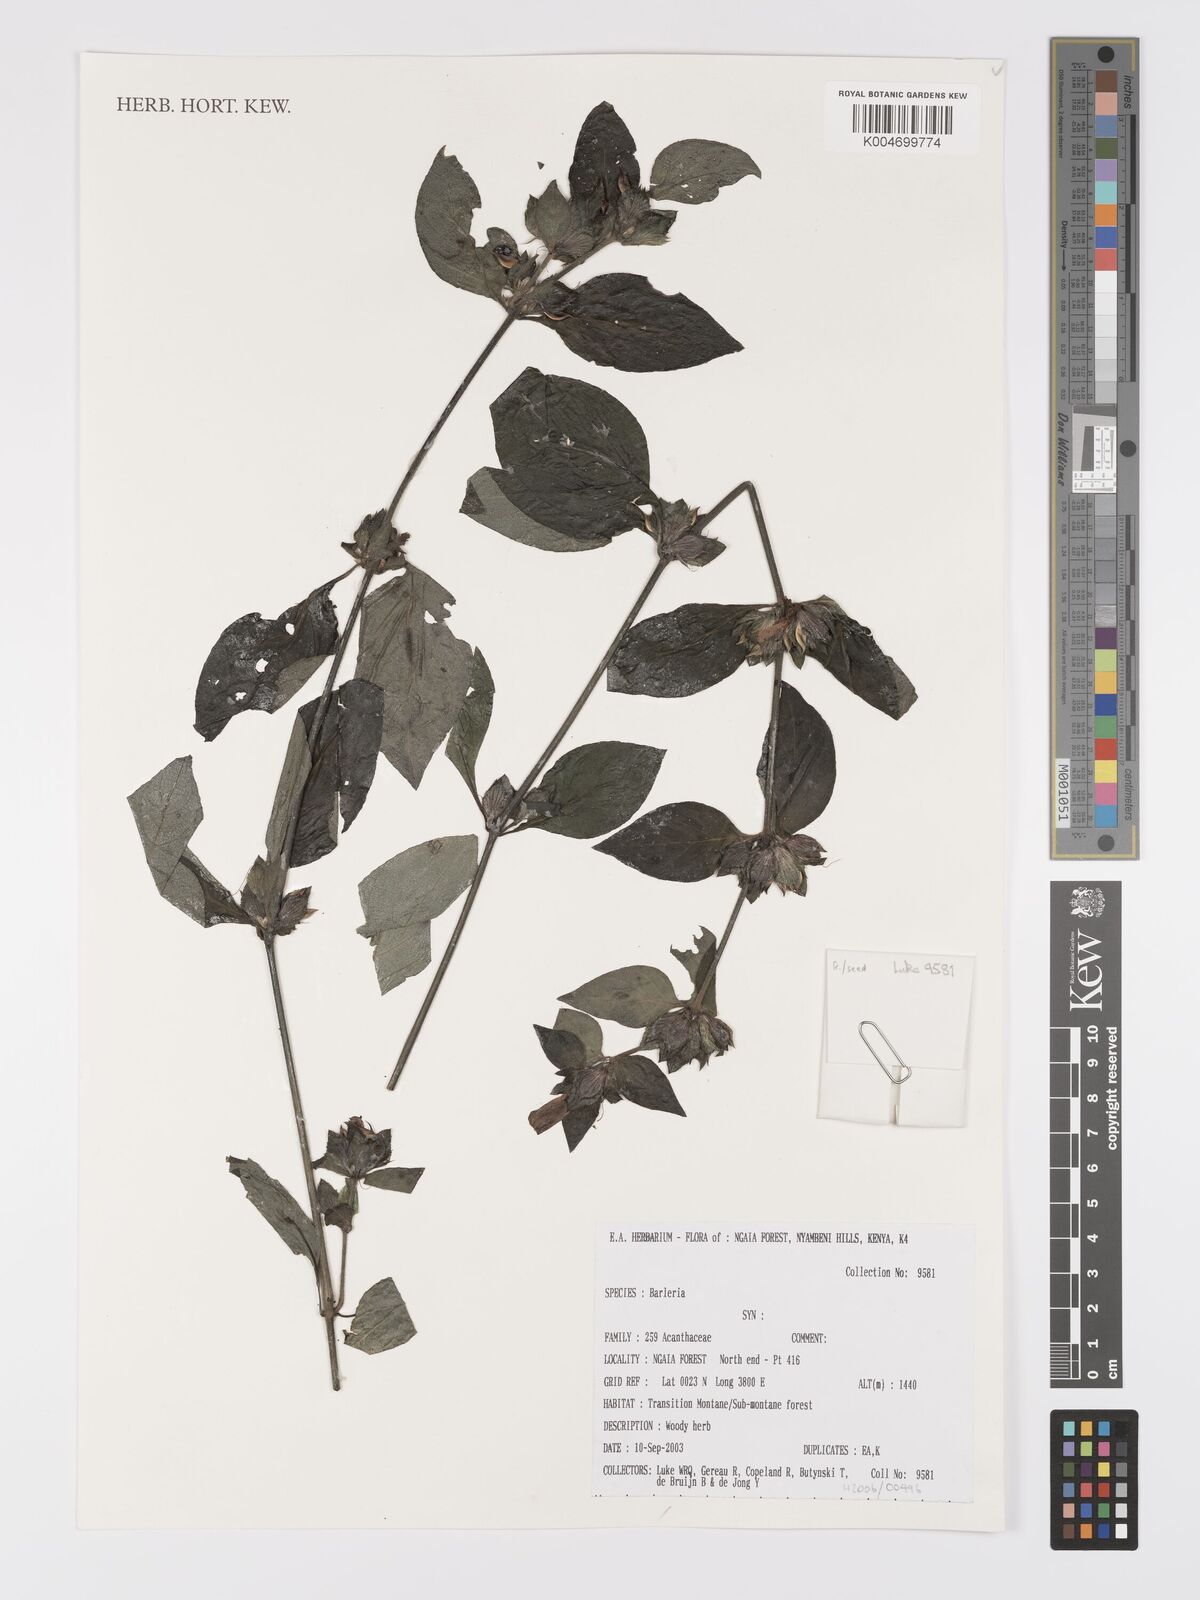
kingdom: Plantae
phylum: Tracheophyta
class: Magnoliopsida
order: Lamiales
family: Acanthaceae
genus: Barleria
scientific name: Barleria ventricosa
